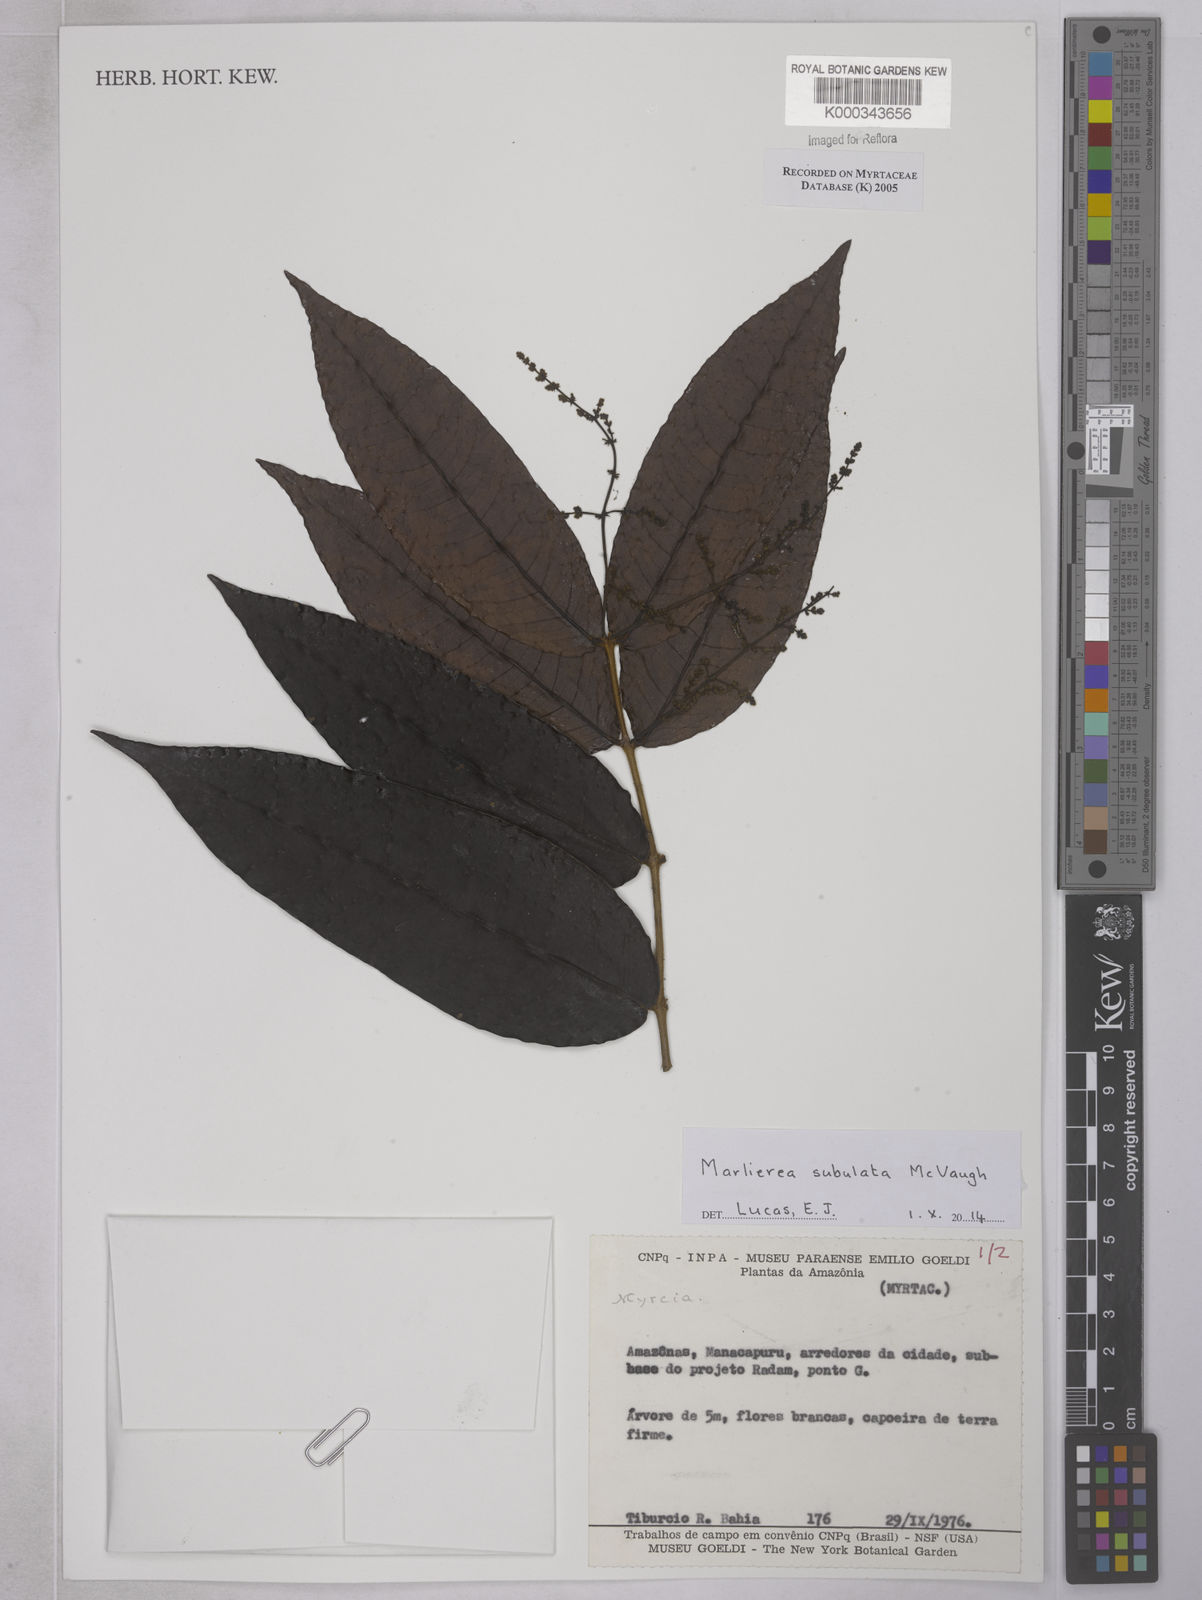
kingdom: Plantae
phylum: Tracheophyta
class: Magnoliopsida
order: Myrtales
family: Myrtaceae
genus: Myrcia
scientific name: Myrcia
